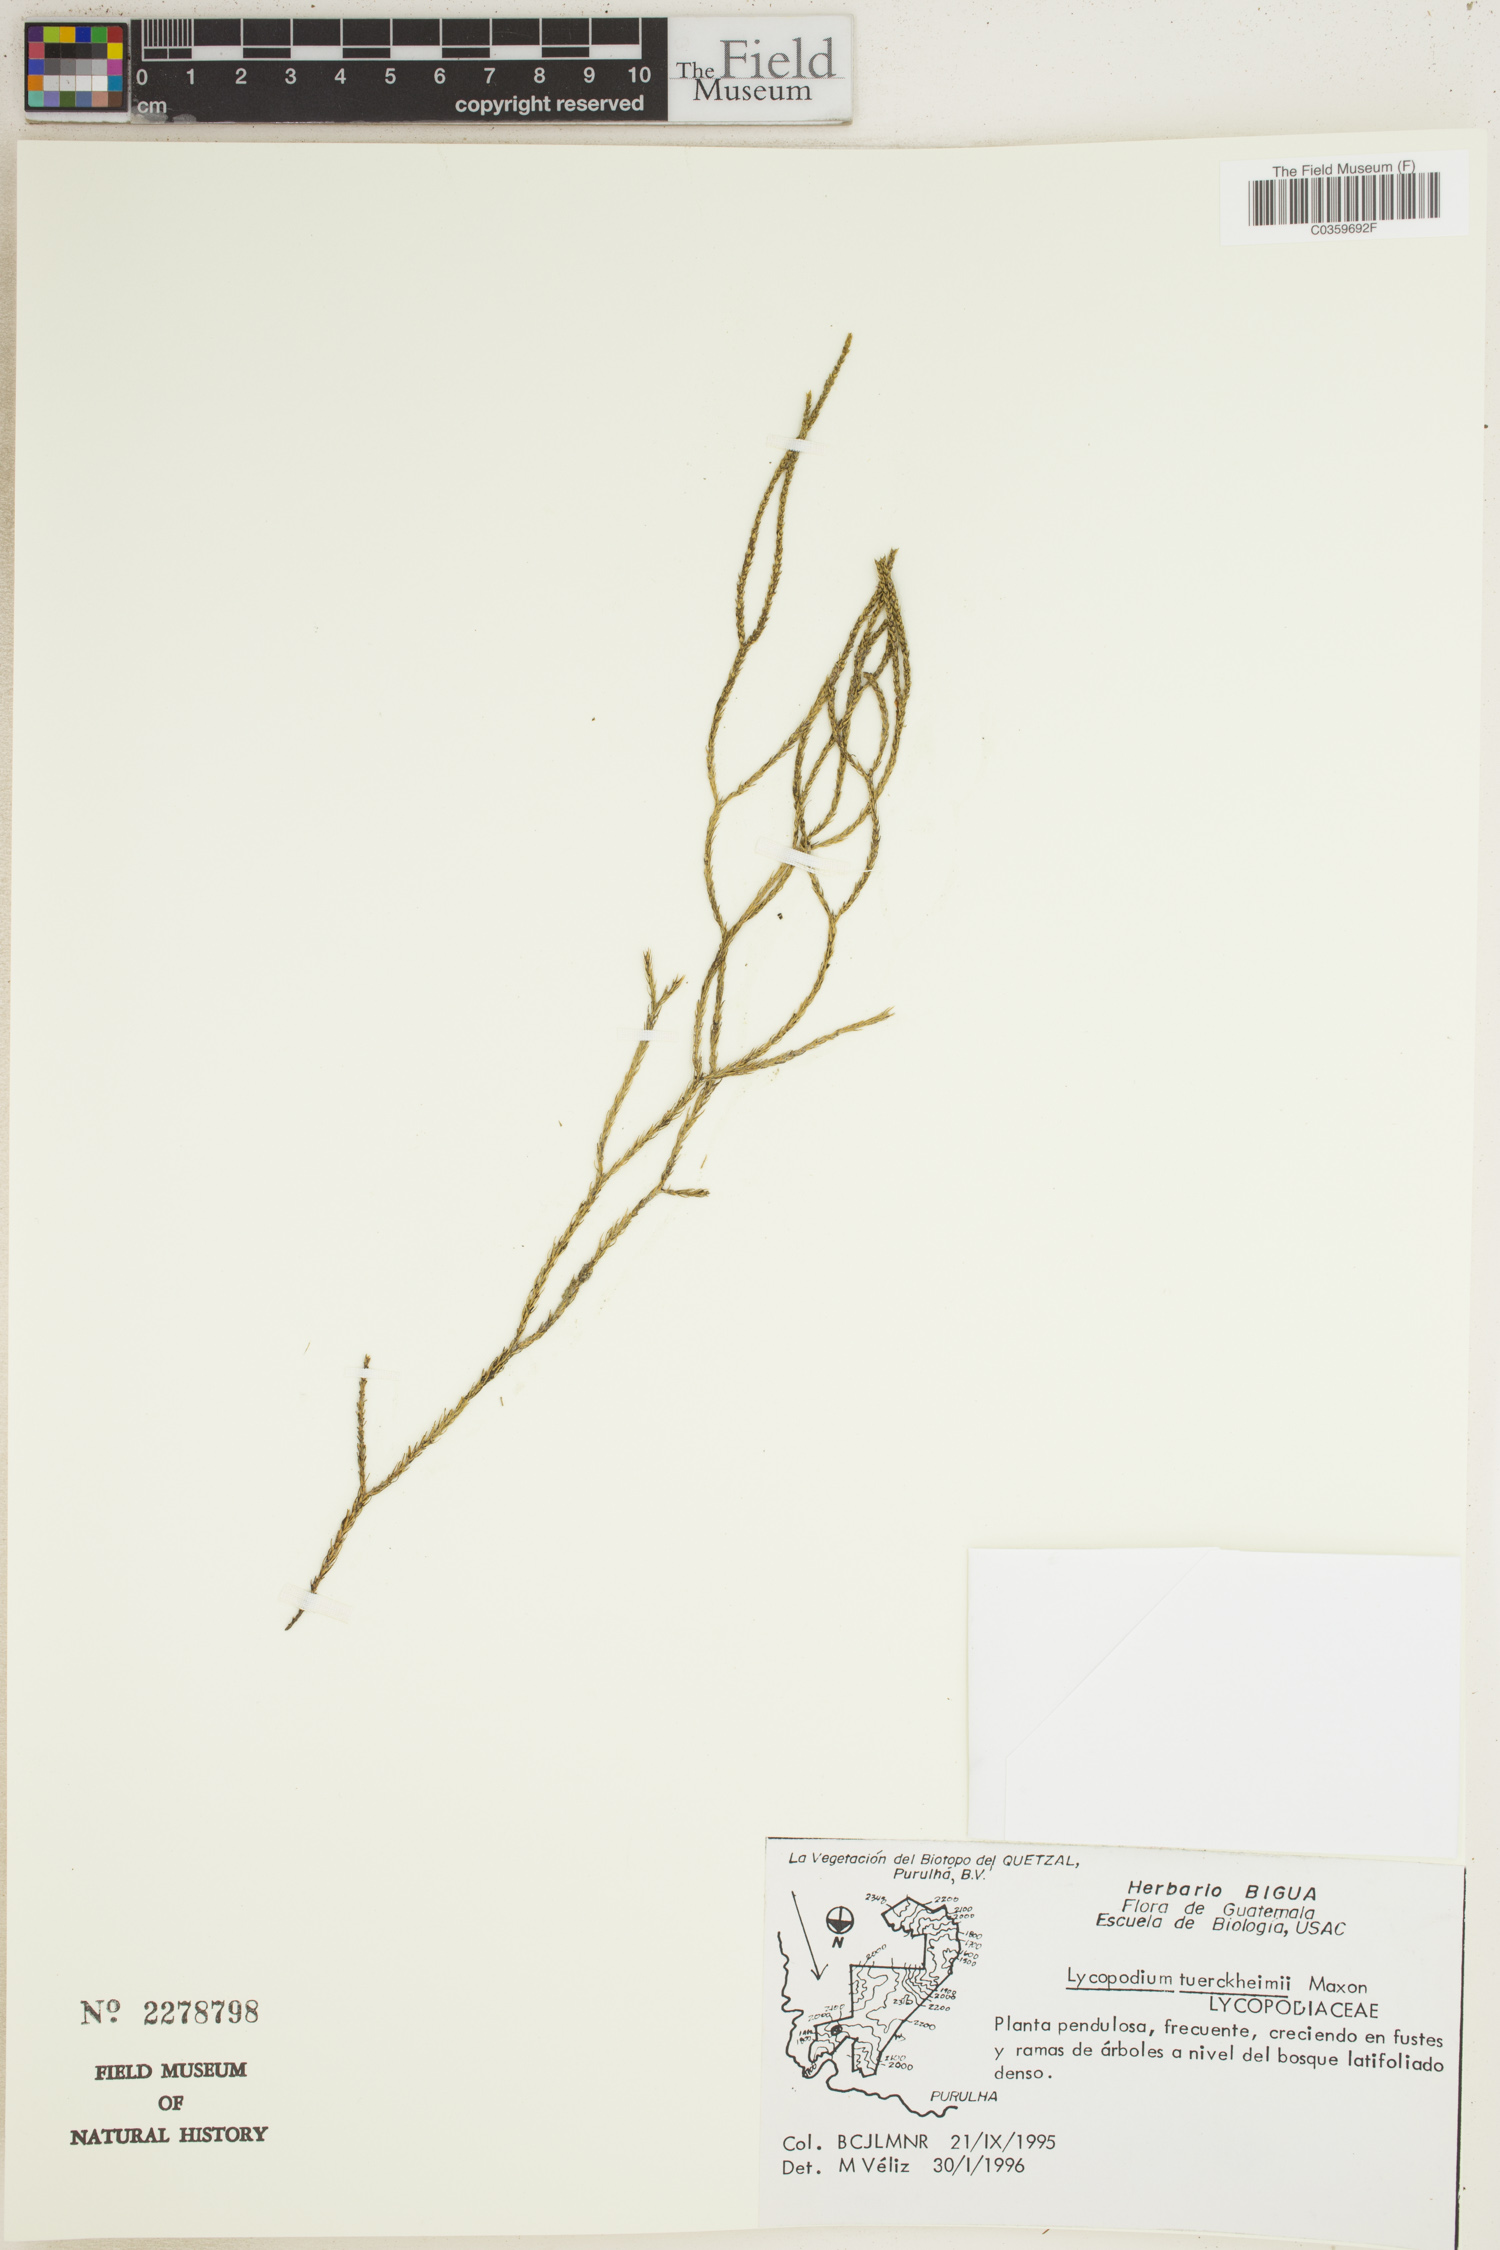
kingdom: Plantae
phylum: Tracheophyta
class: Lycopodiopsida
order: Lycopodiales
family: Lycopodiaceae
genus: Phlegmariurus
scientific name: Phlegmariurus pringlei
